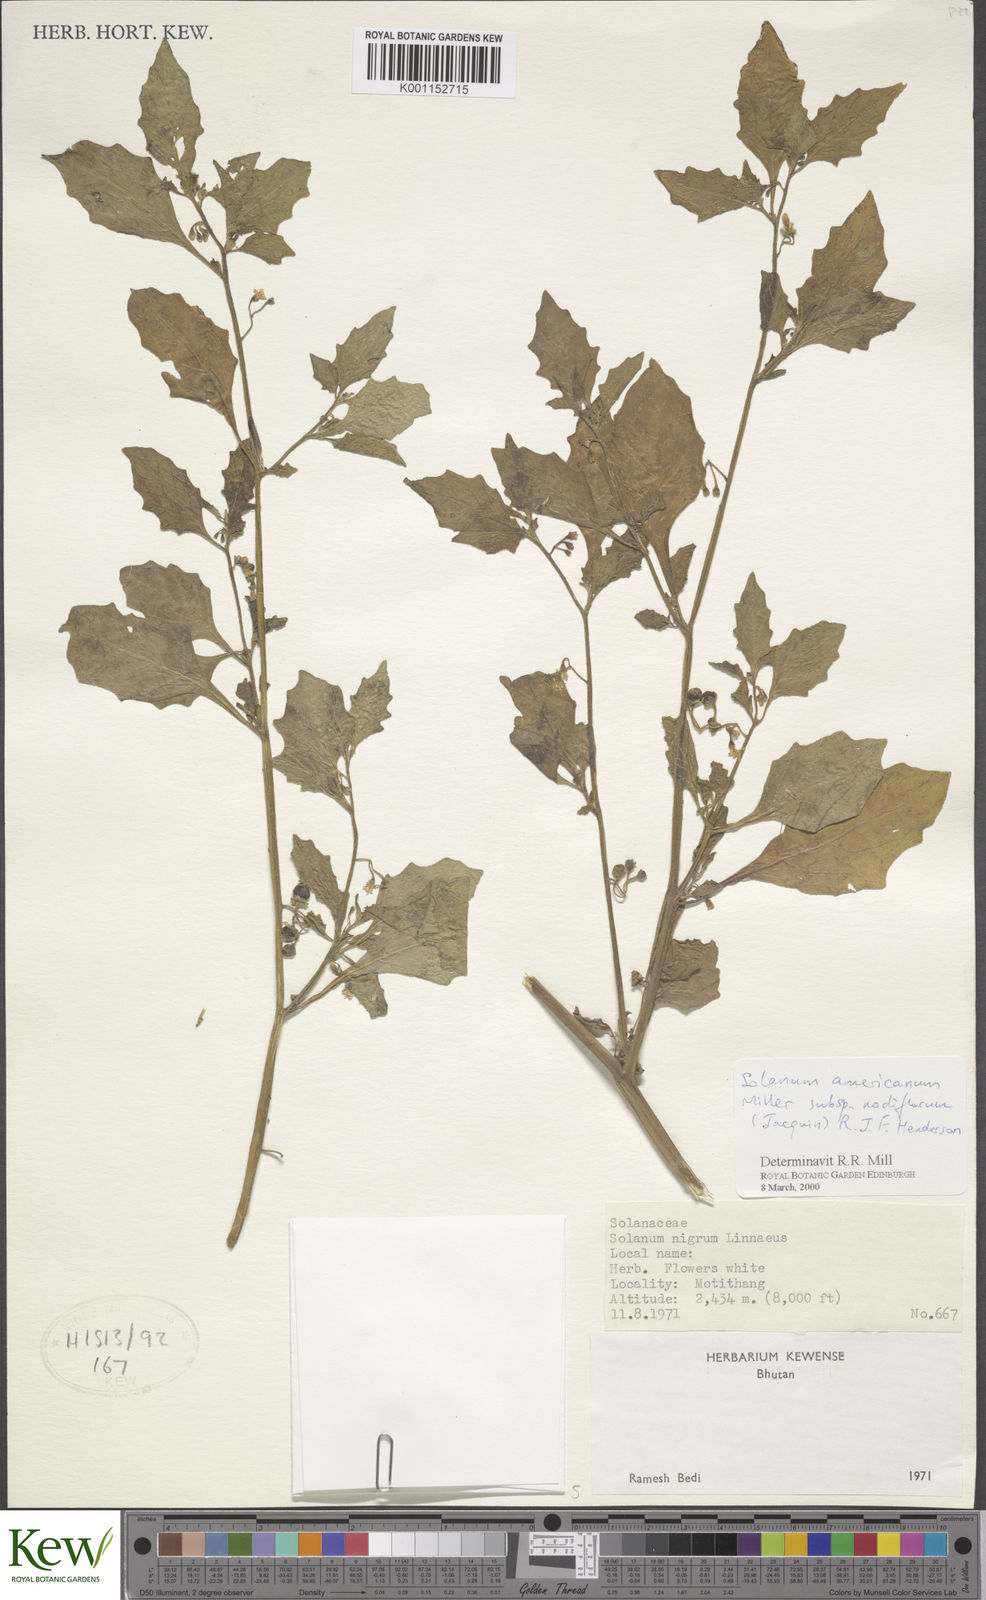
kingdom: Plantae
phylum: Tracheophyta
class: Magnoliopsida
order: Solanales
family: Solanaceae
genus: Solanum
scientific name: Solanum nigrum
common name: Black nightshade
